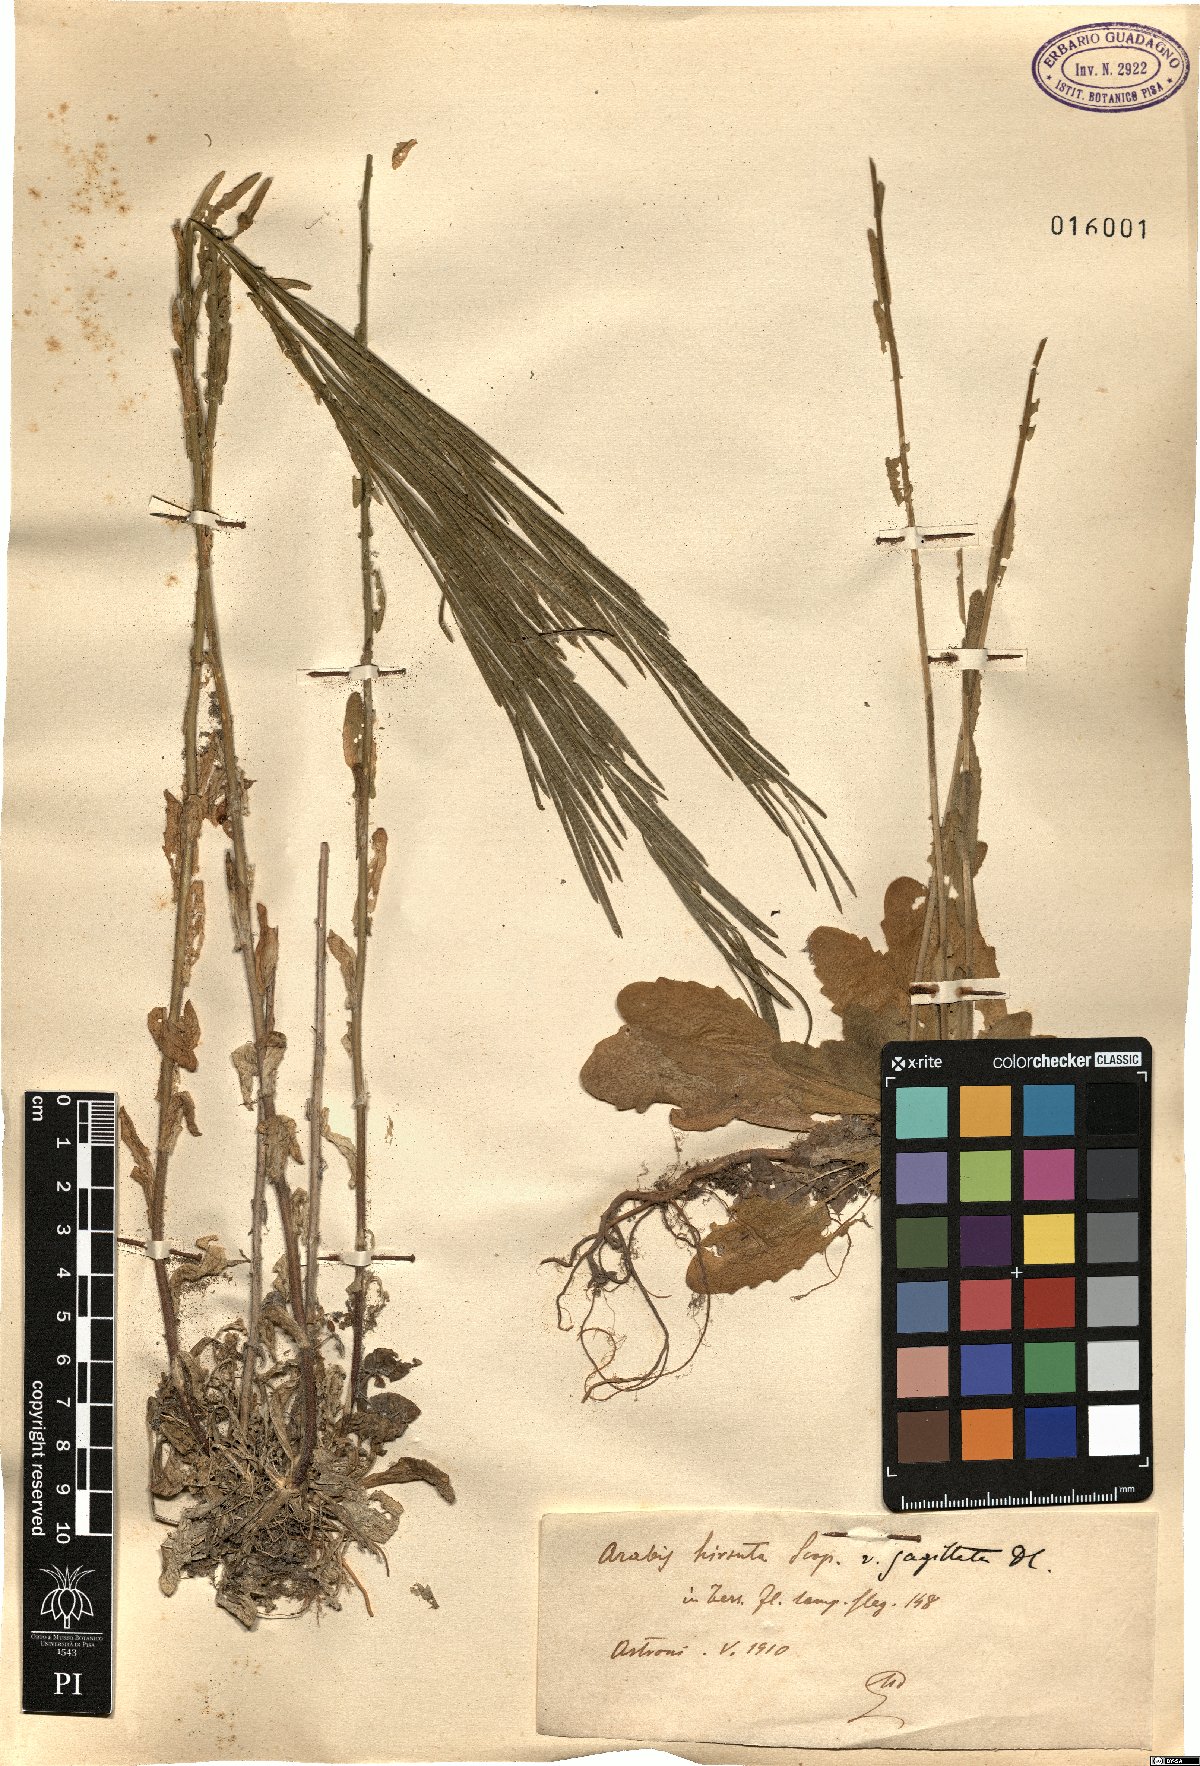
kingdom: Plantae
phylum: Tracheophyta
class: Magnoliopsida
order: Brassicales
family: Brassicaceae
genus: Arabis
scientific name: Arabis sagittata
